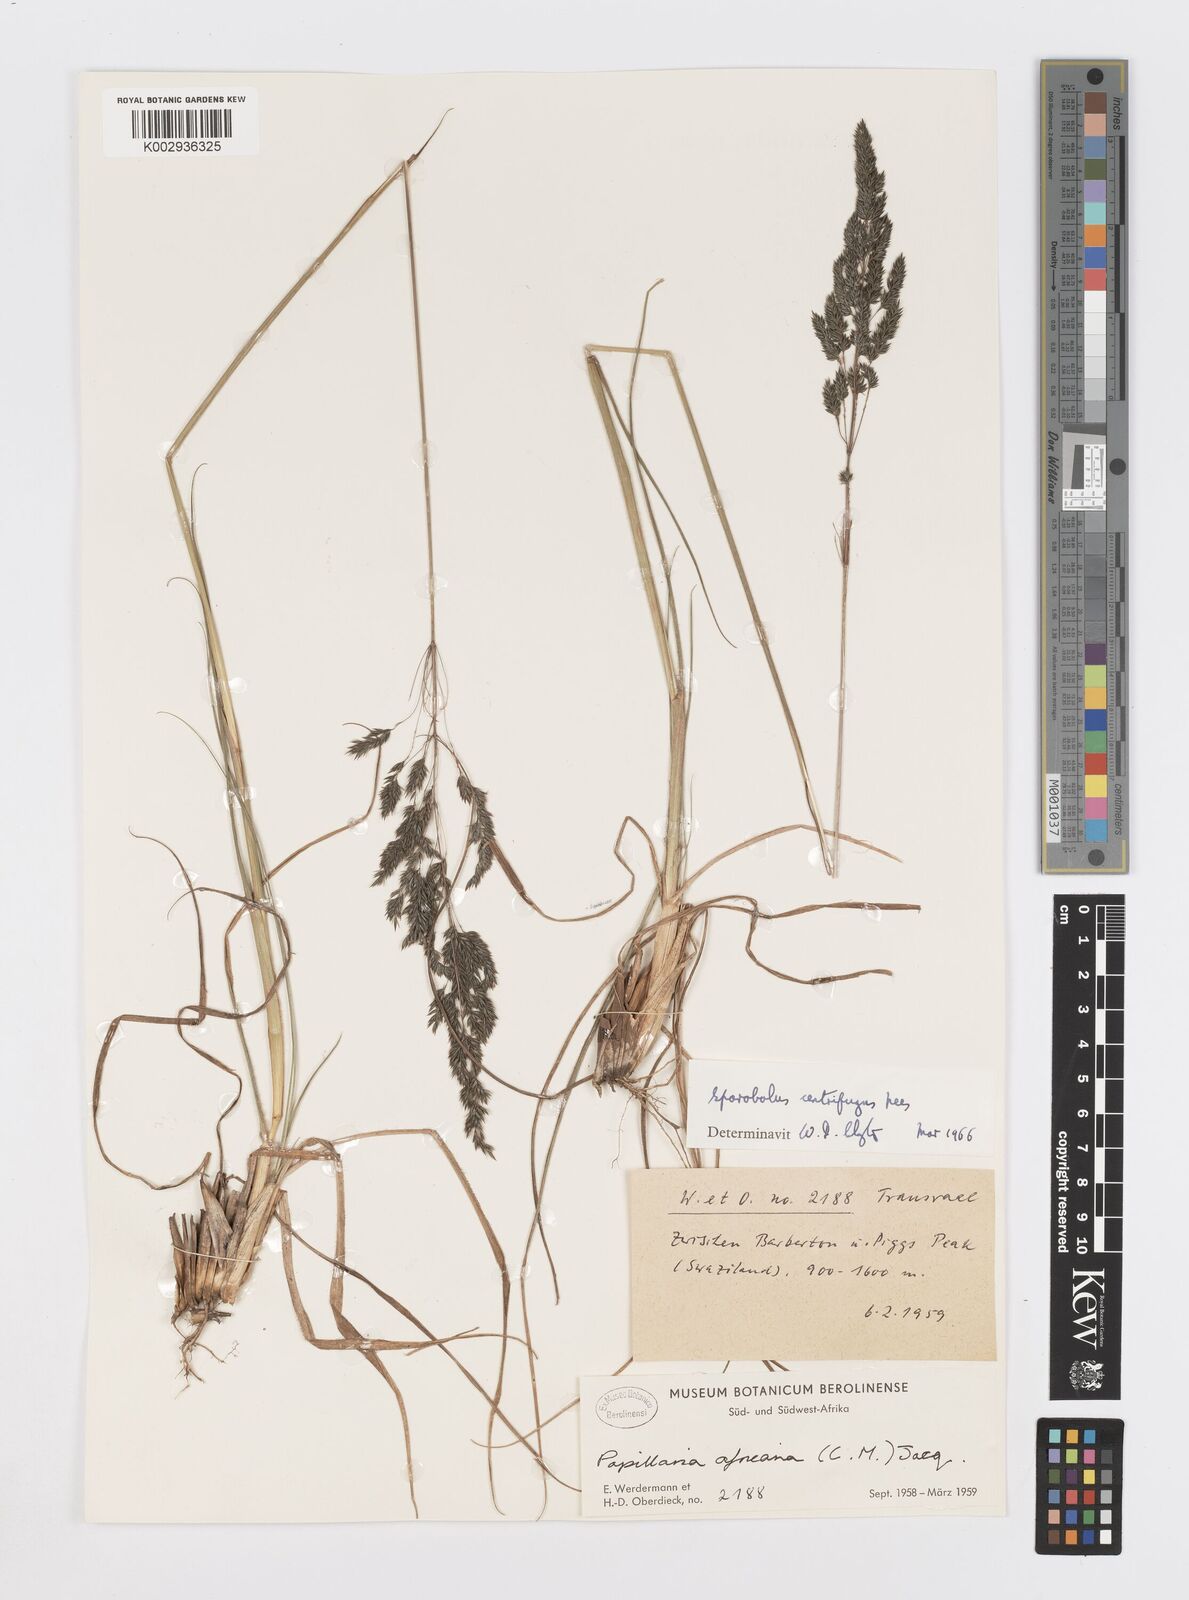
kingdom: Plantae
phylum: Tracheophyta
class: Liliopsida
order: Poales
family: Poaceae
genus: Sporobolus
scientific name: Sporobolus centrifugus
